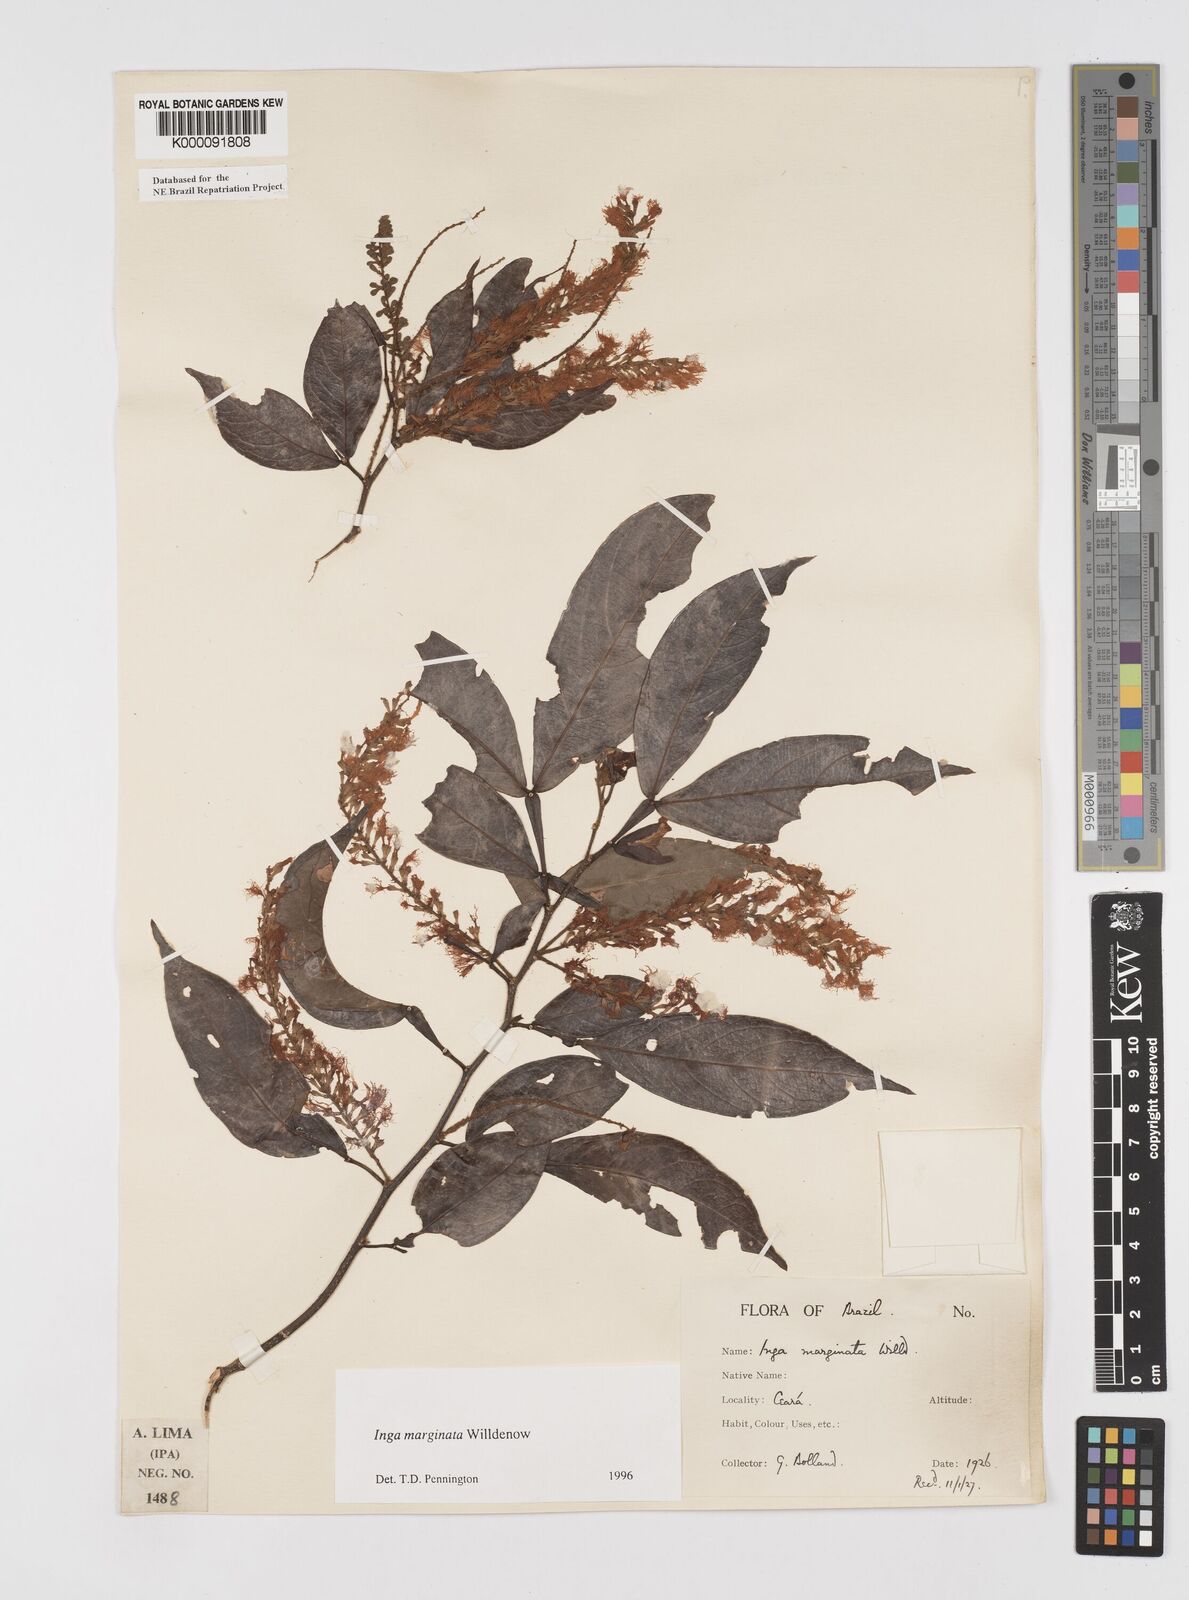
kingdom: Plantae
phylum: Tracheophyta
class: Magnoliopsida
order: Fabales
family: Fabaceae
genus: Inga
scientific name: Inga marginata
